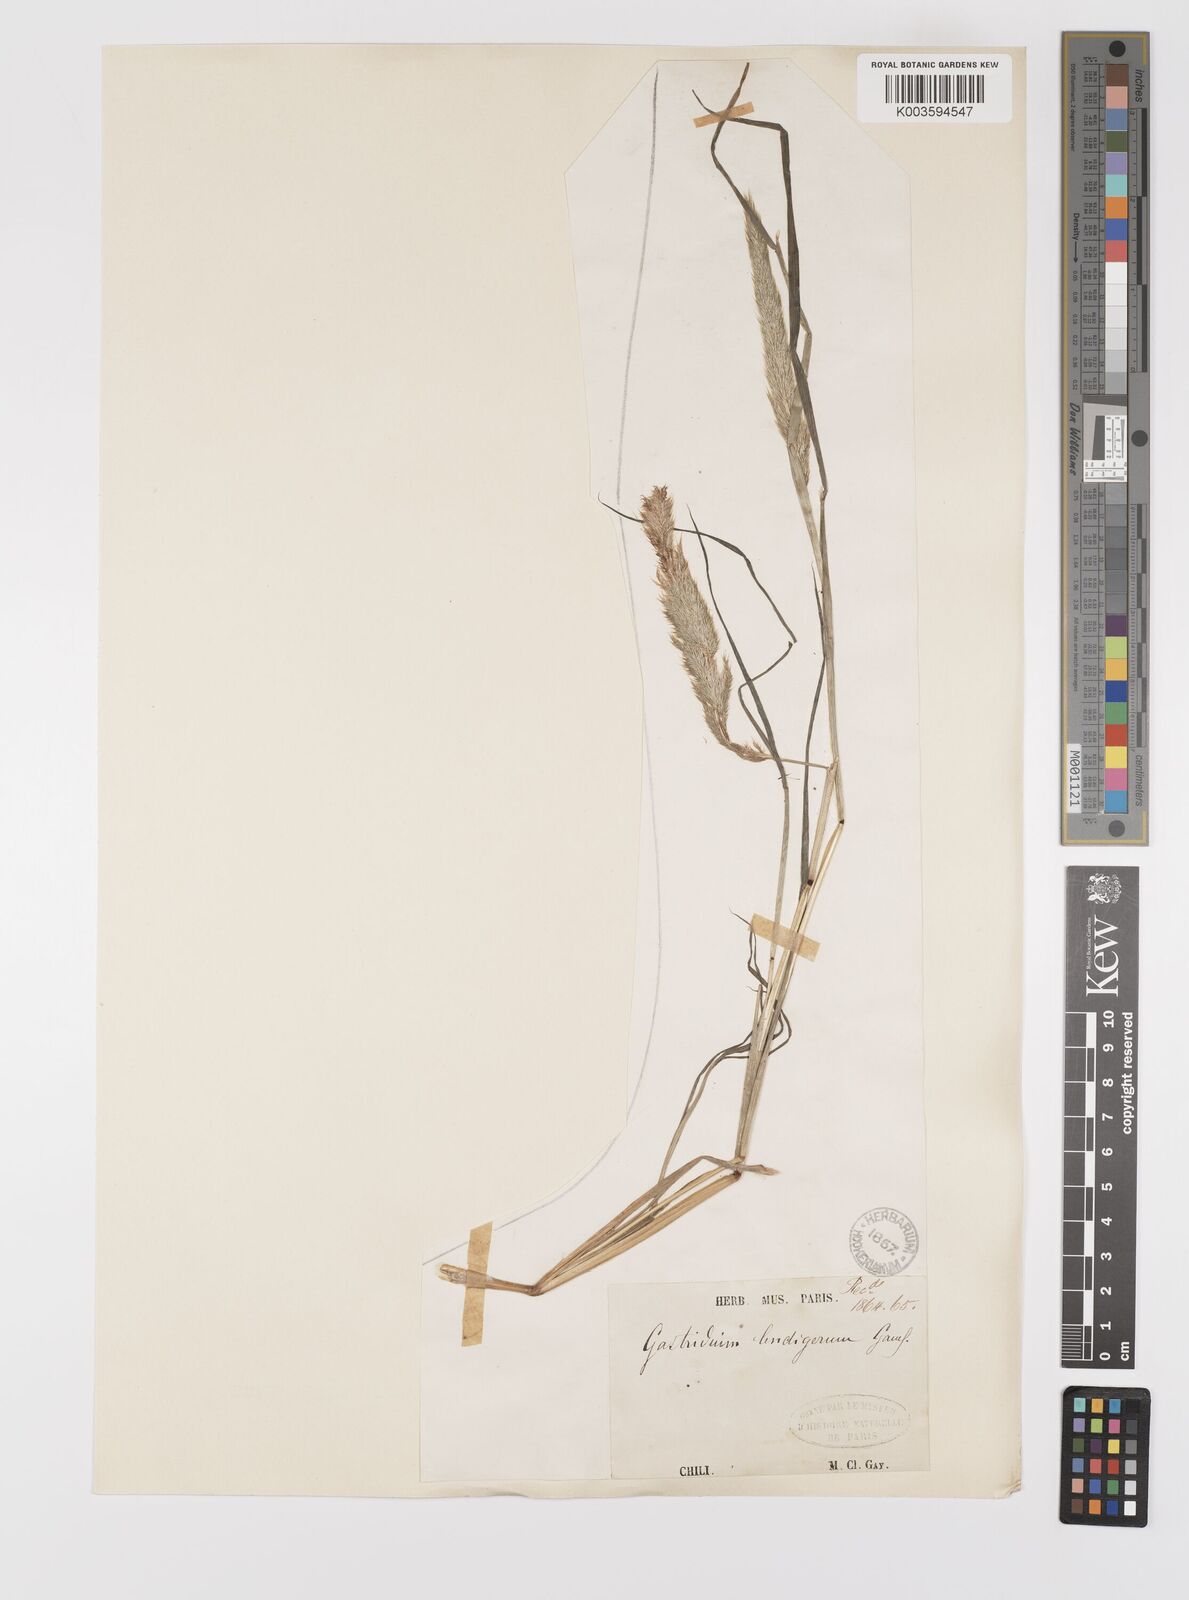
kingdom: Plantae
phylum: Tracheophyta
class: Liliopsida
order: Poales
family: Poaceae
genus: Gastridium
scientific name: Gastridium phleoides
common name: Nit grass
